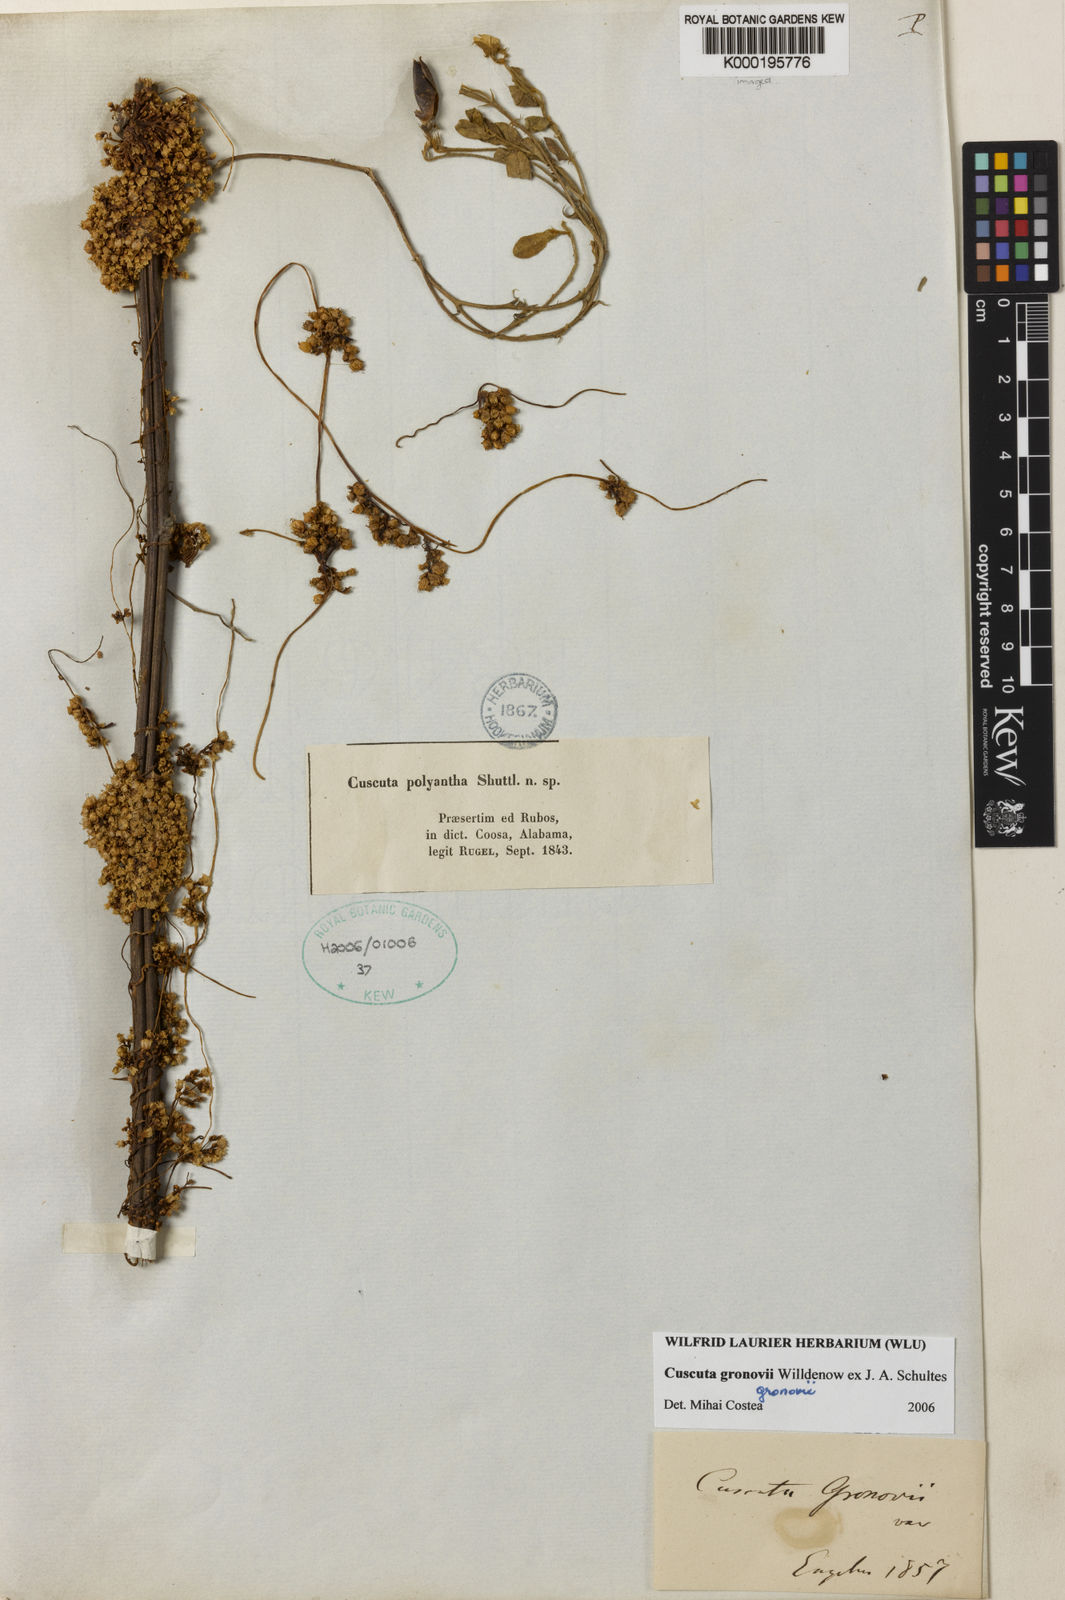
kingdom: Plantae
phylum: Tracheophyta
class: Magnoliopsida
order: Solanales
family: Convolvulaceae
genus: Cuscuta
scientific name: Cuscuta gronovii
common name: Common dodder
